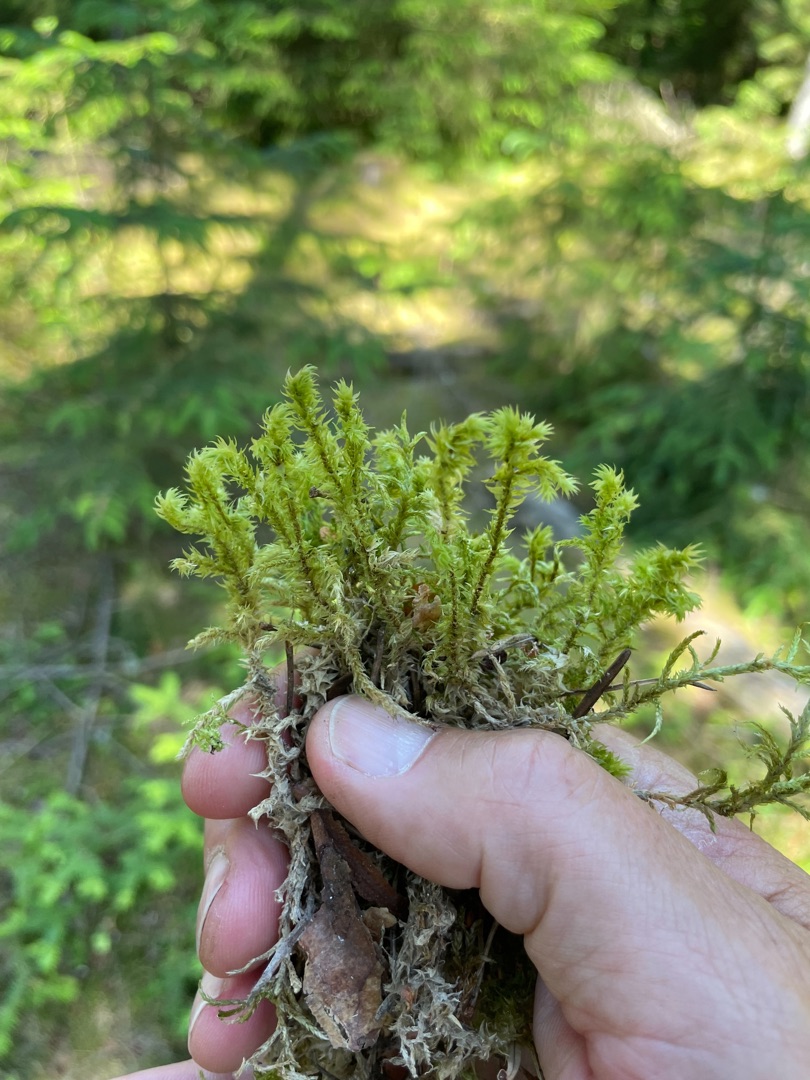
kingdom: Plantae
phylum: Bryophyta
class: Bryopsida
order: Hypnales
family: Hylocomiaceae
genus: Hylocomiadelphus
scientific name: Hylocomiadelphus triquetrus
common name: Stor kransemos
